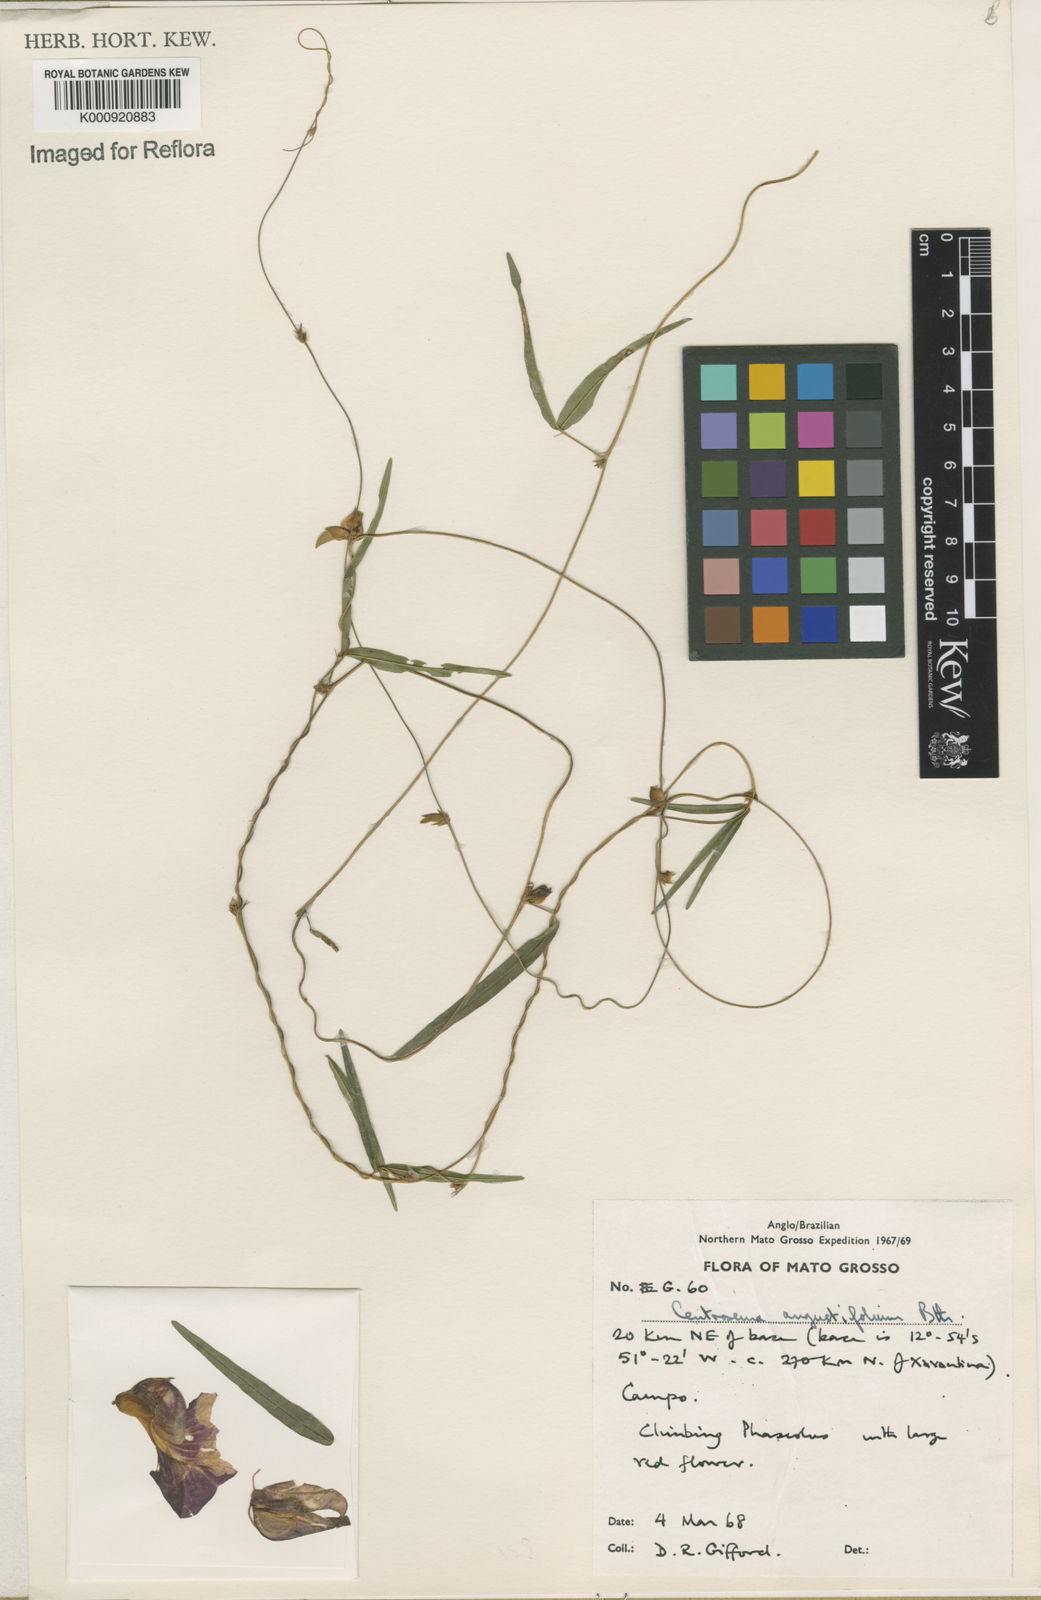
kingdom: Plantae
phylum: Tracheophyta
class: Magnoliopsida
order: Fabales
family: Fabaceae
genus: Centrosema
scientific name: Centrosema
